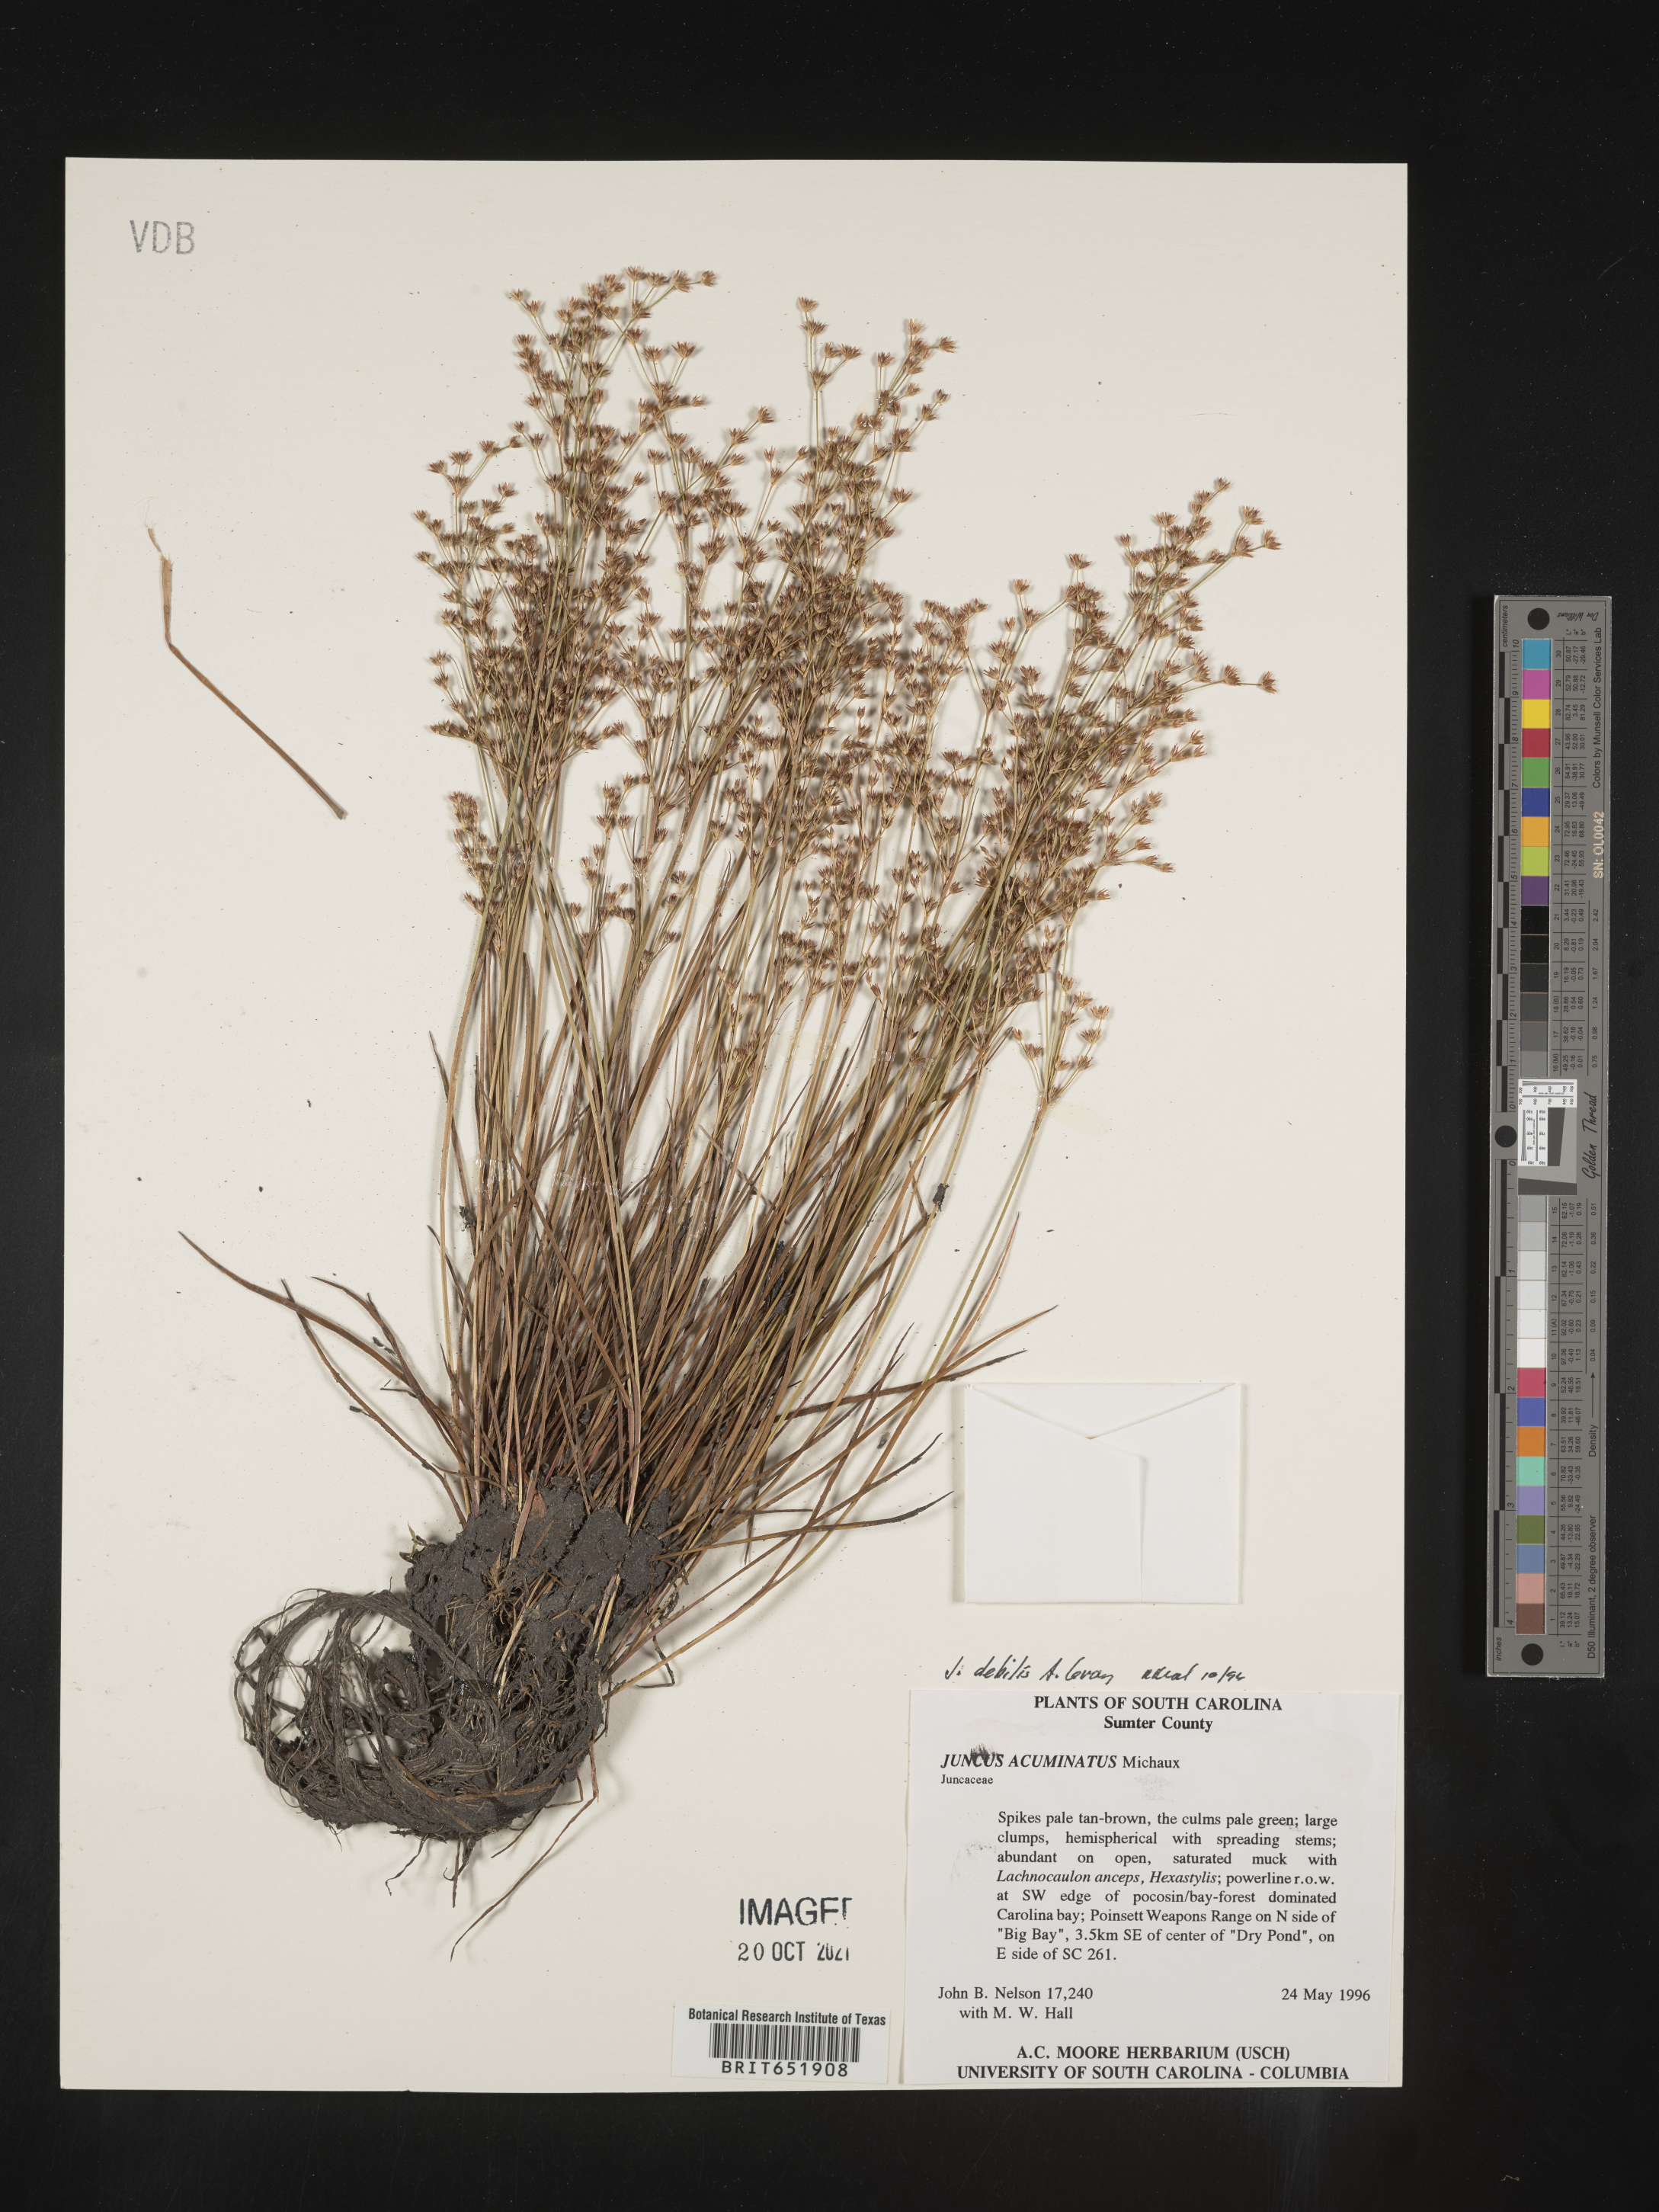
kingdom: Plantae
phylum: Tracheophyta
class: Liliopsida
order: Poales
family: Juncaceae
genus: Juncus
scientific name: Juncus debilis
